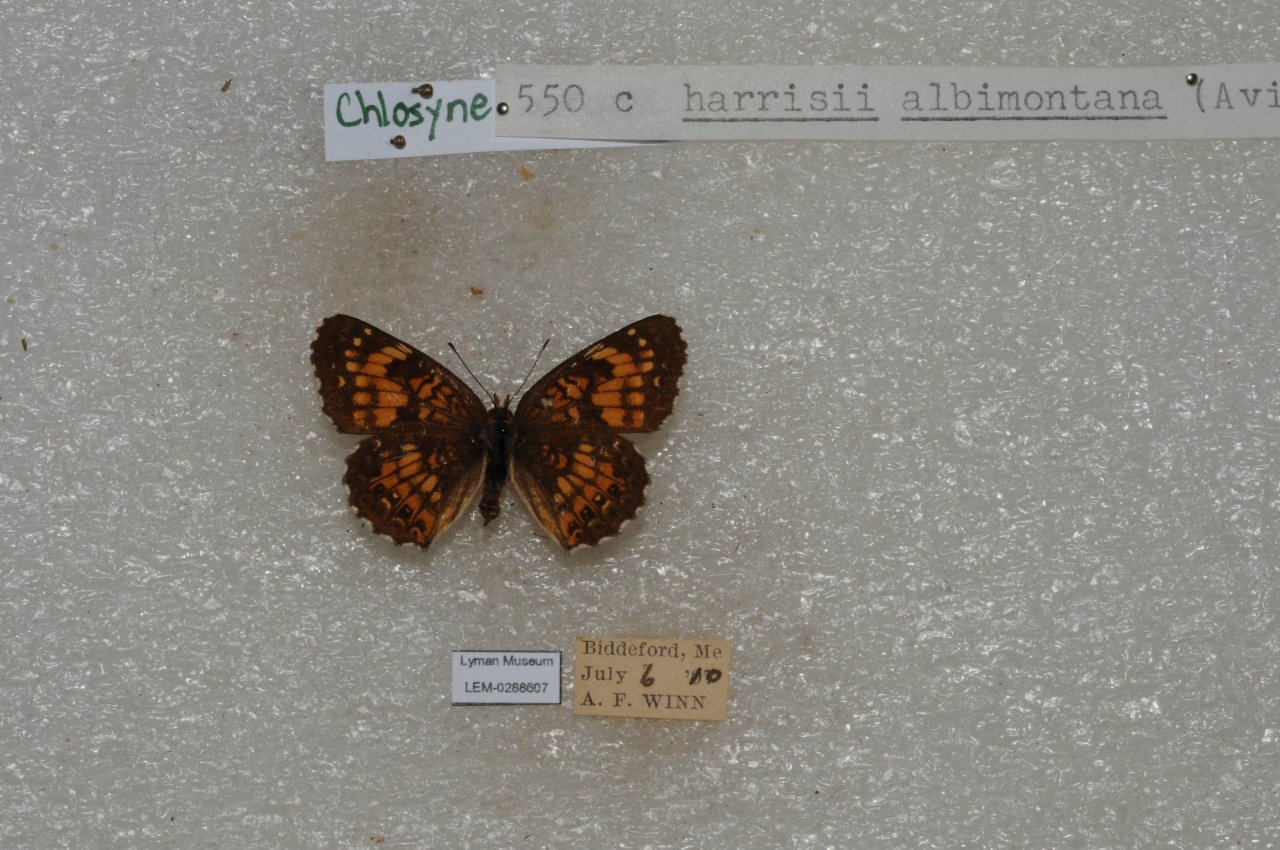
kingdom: Animalia
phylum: Arthropoda
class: Insecta
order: Lepidoptera
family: Nymphalidae
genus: Chlosyne
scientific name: Chlosyne harrisii
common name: Harris's Checkerspot
